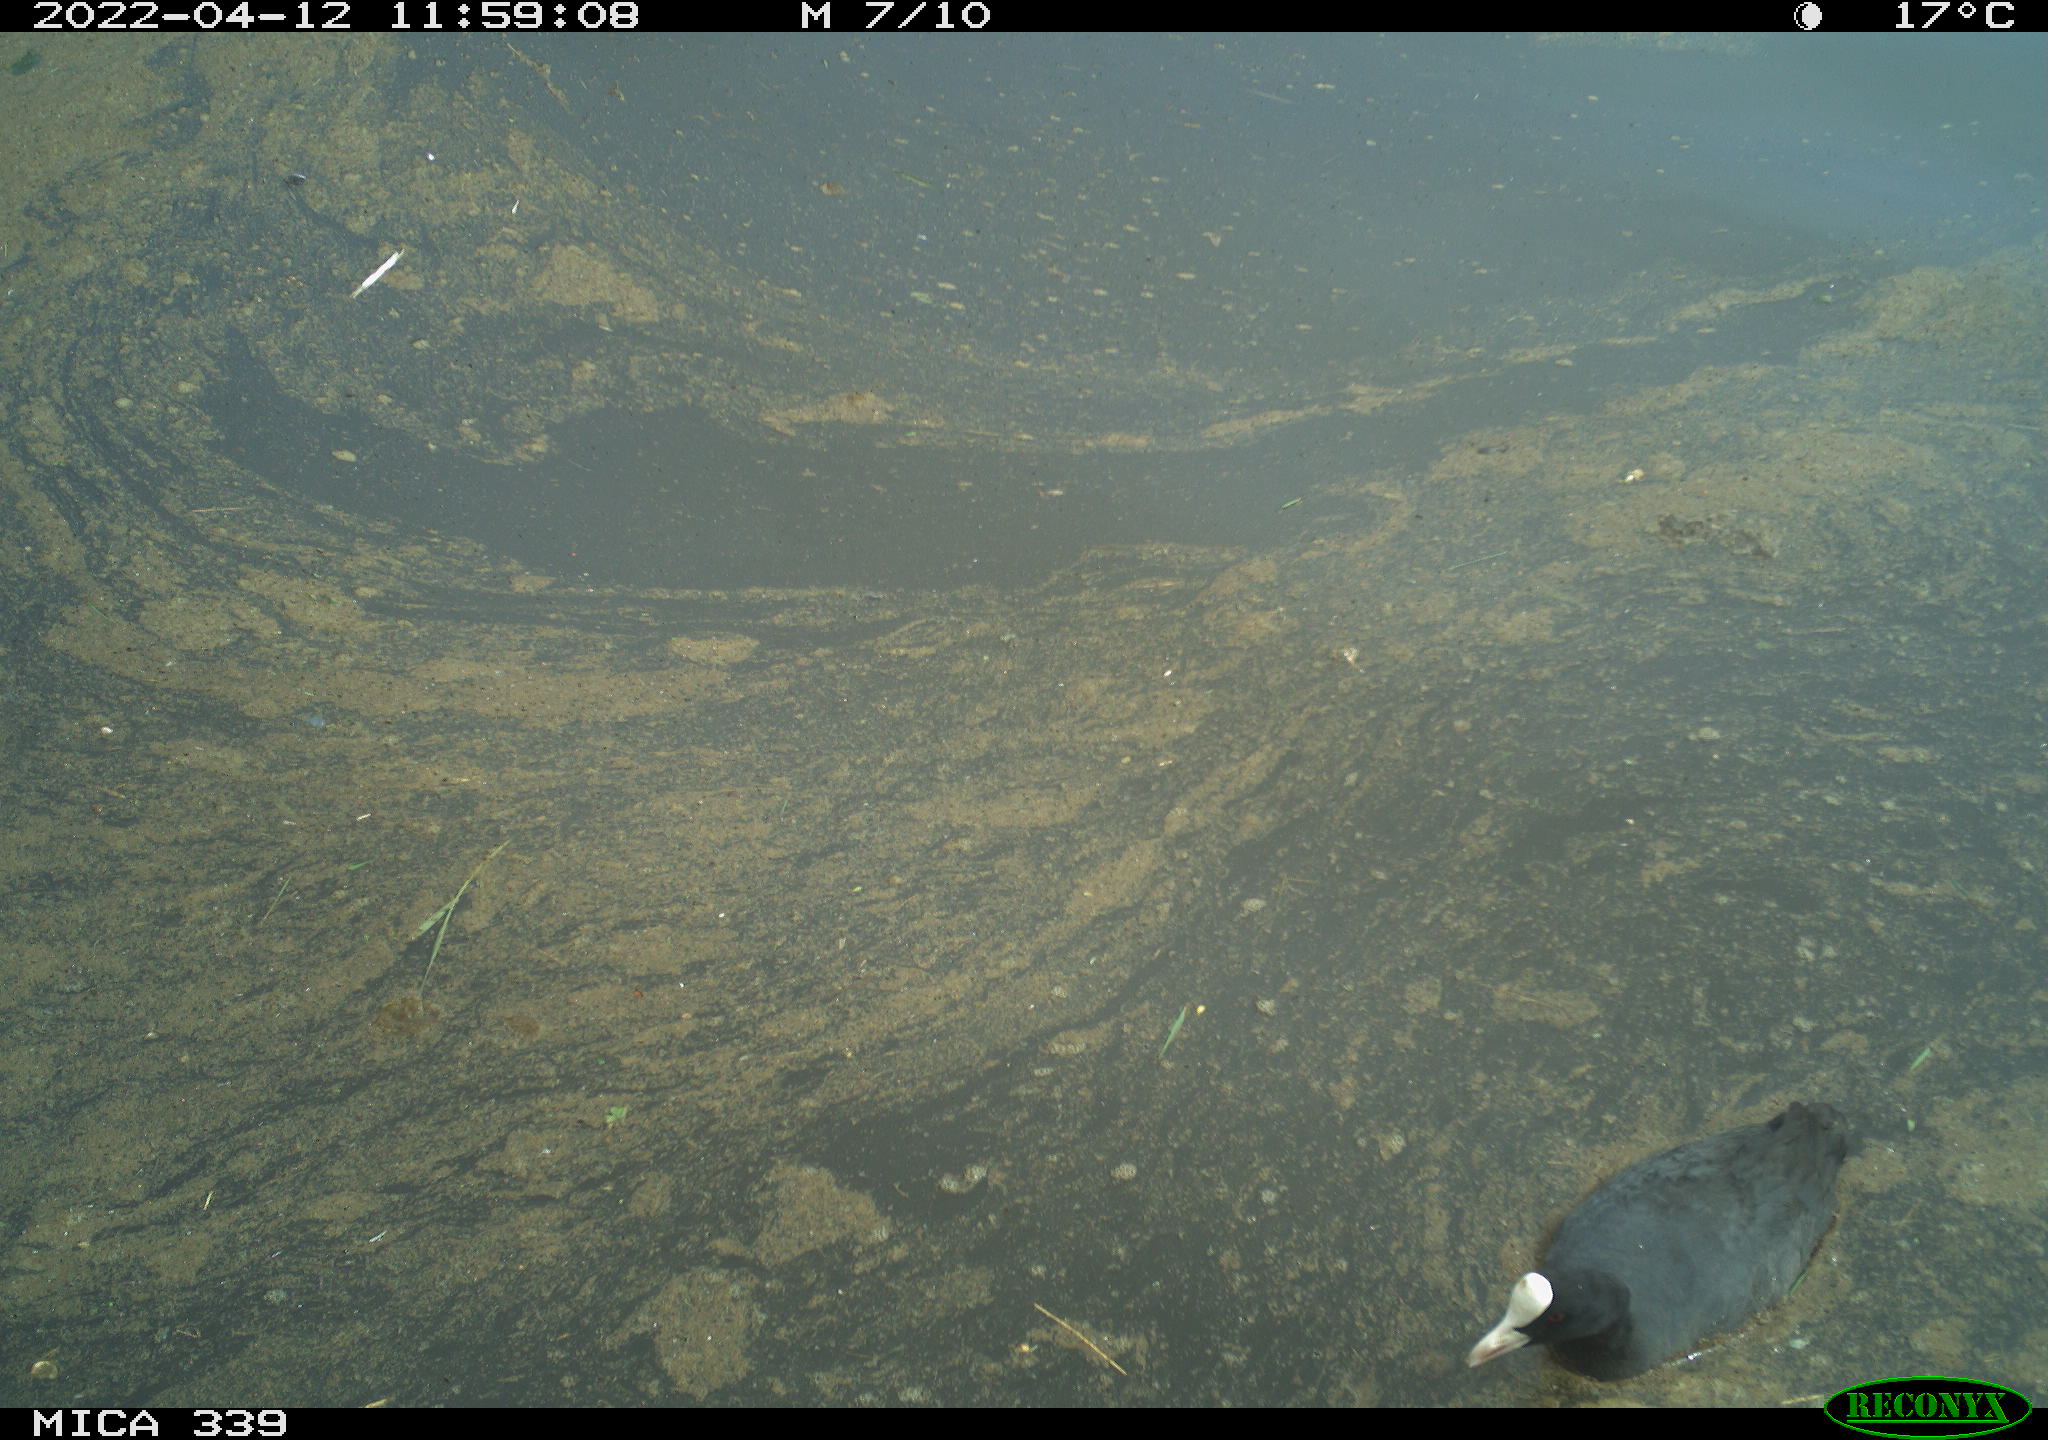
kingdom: Animalia
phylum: Chordata
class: Aves
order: Gruiformes
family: Rallidae
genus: Fulica
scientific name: Fulica atra
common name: Eurasian coot
